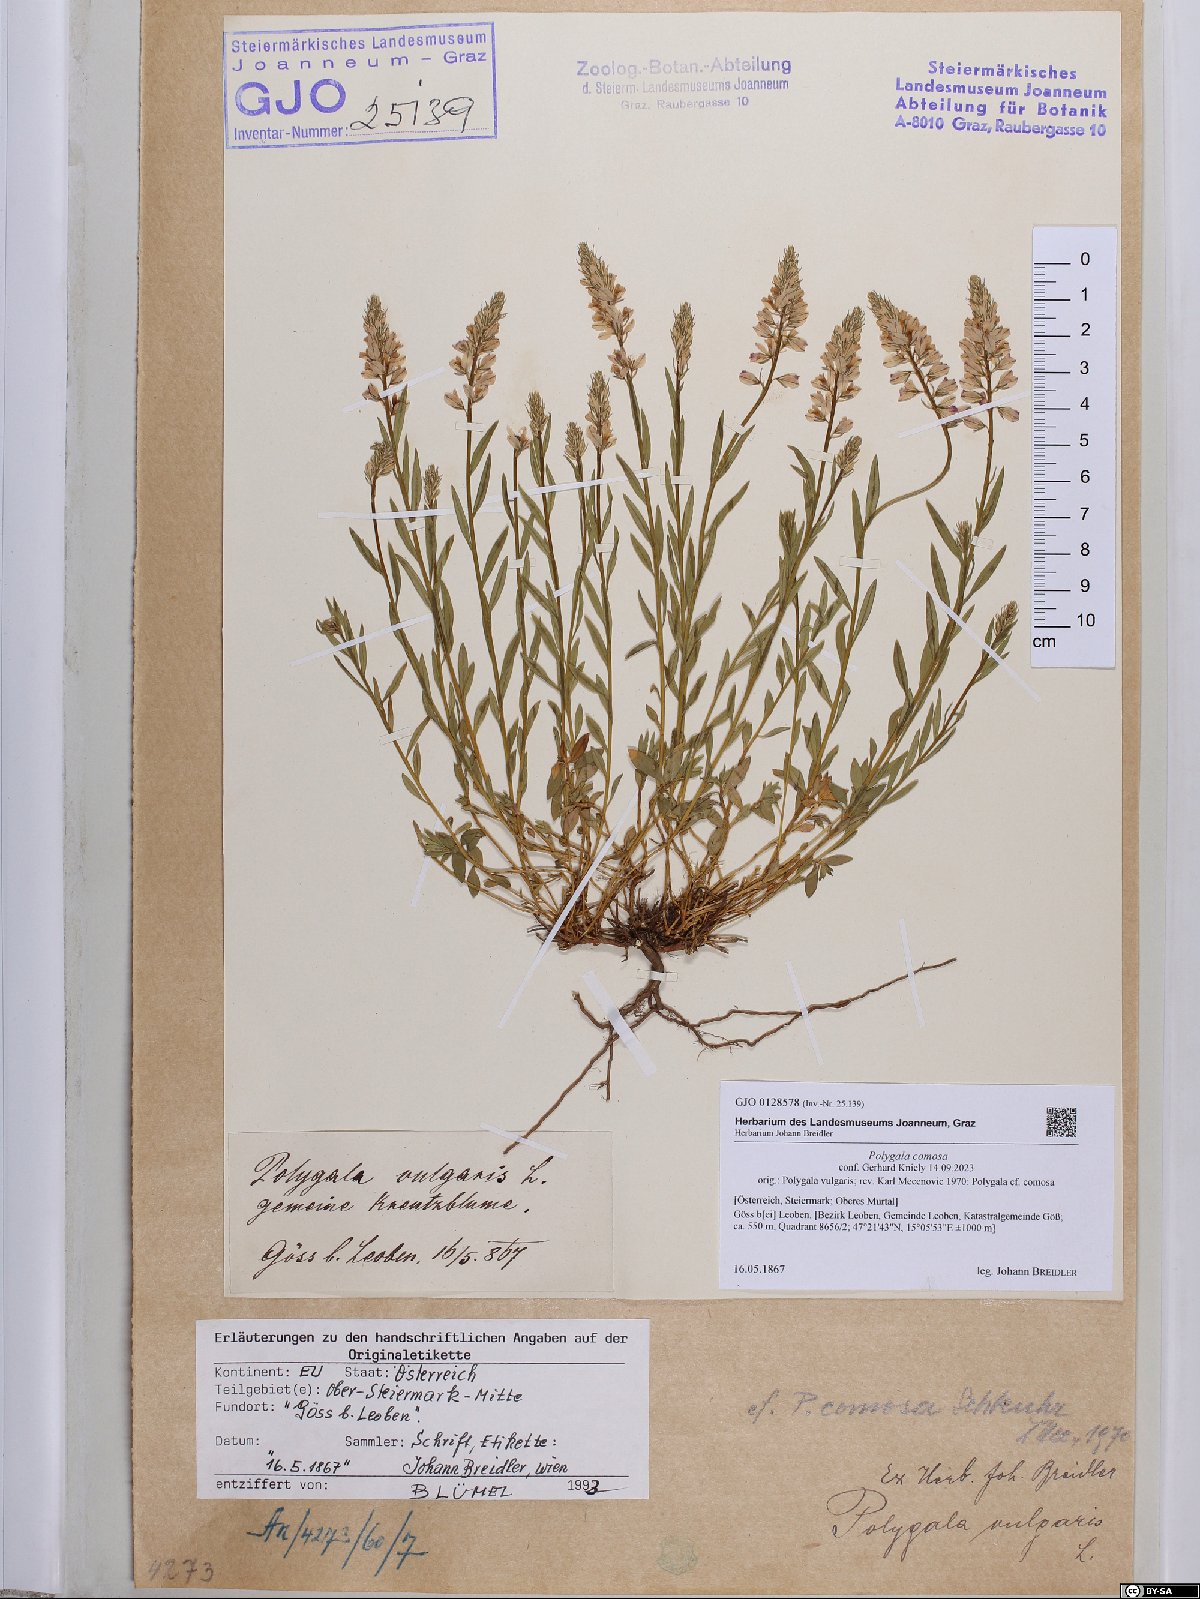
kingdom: Plantae
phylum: Tracheophyta
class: Magnoliopsida
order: Fabales
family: Polygalaceae
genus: Polygala
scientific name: Polygala comosa
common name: Tufted milkwort
